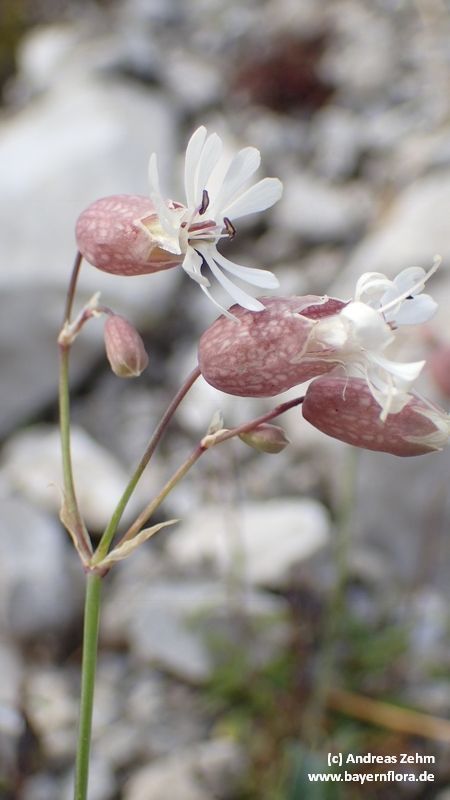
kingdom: Plantae
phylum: Tracheophyta
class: Magnoliopsida
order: Caryophyllales
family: Caryophyllaceae
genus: Silene
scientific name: Silene glareosa
